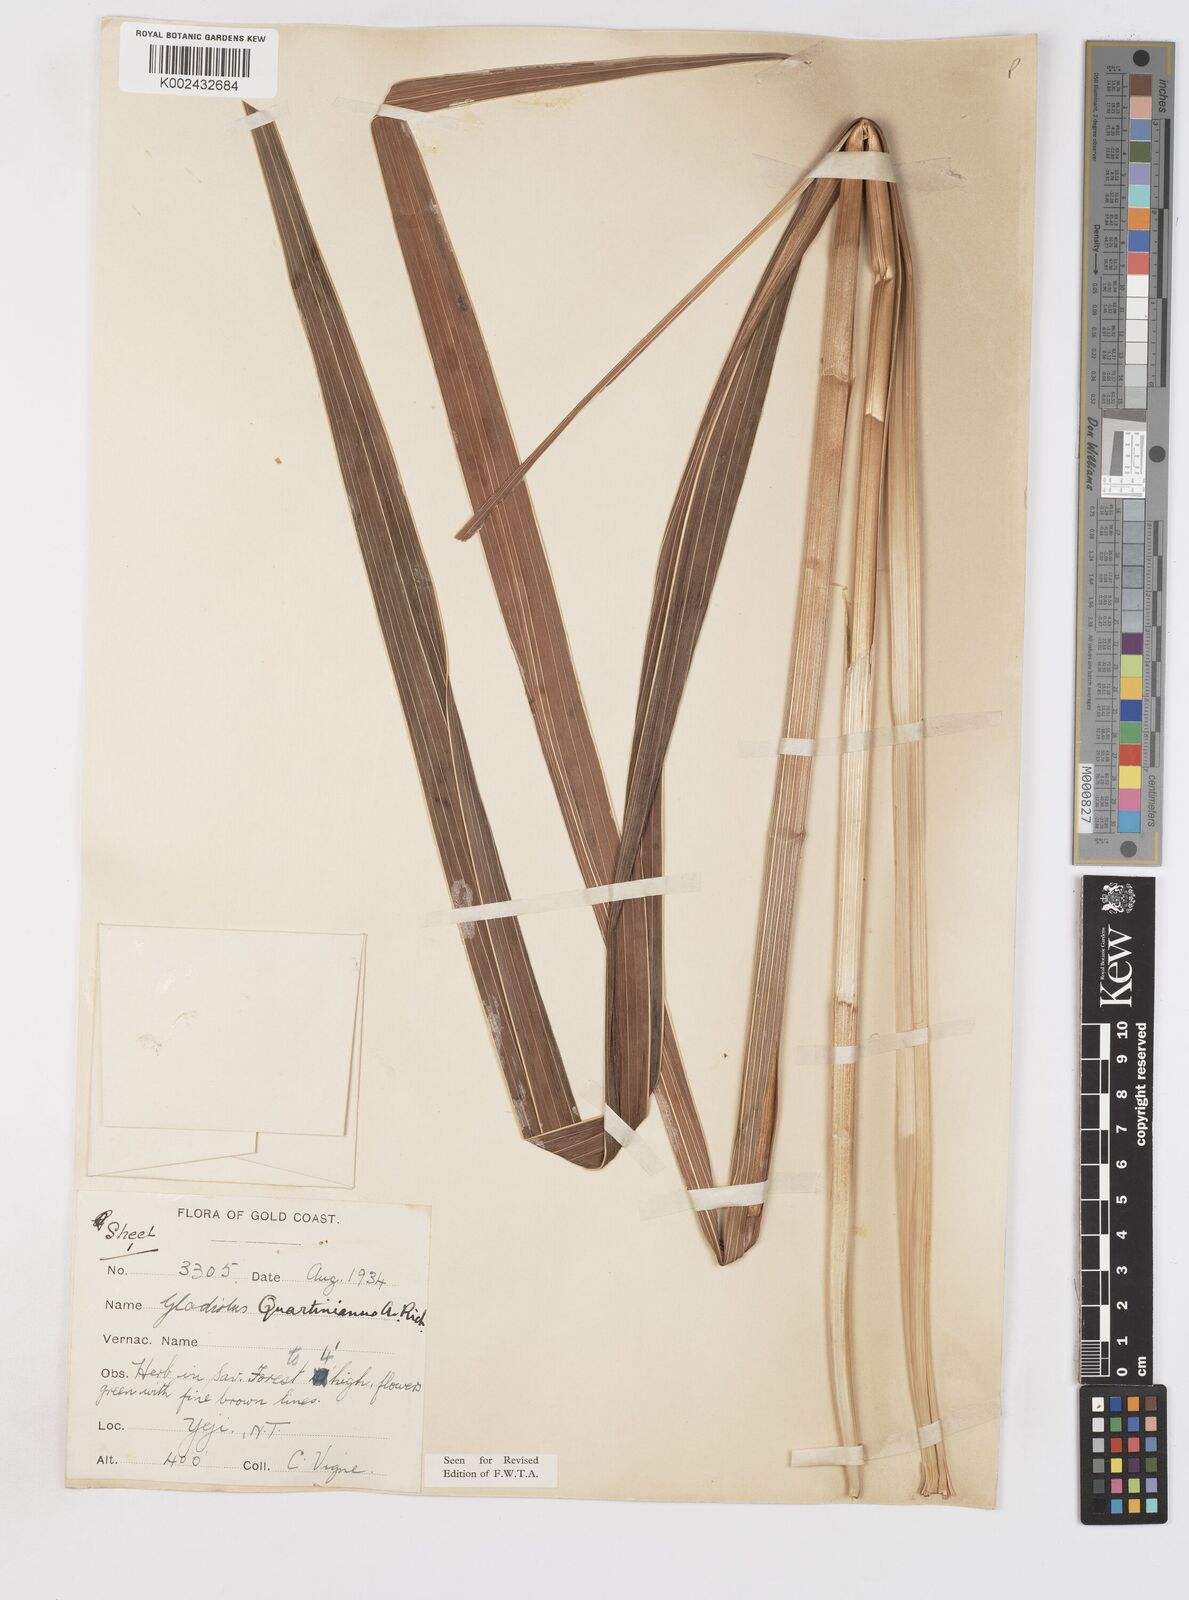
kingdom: Plantae
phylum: Tracheophyta
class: Liliopsida
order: Asparagales
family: Iridaceae
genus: Gladiolus
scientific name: Gladiolus dalenii
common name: Cornflag
